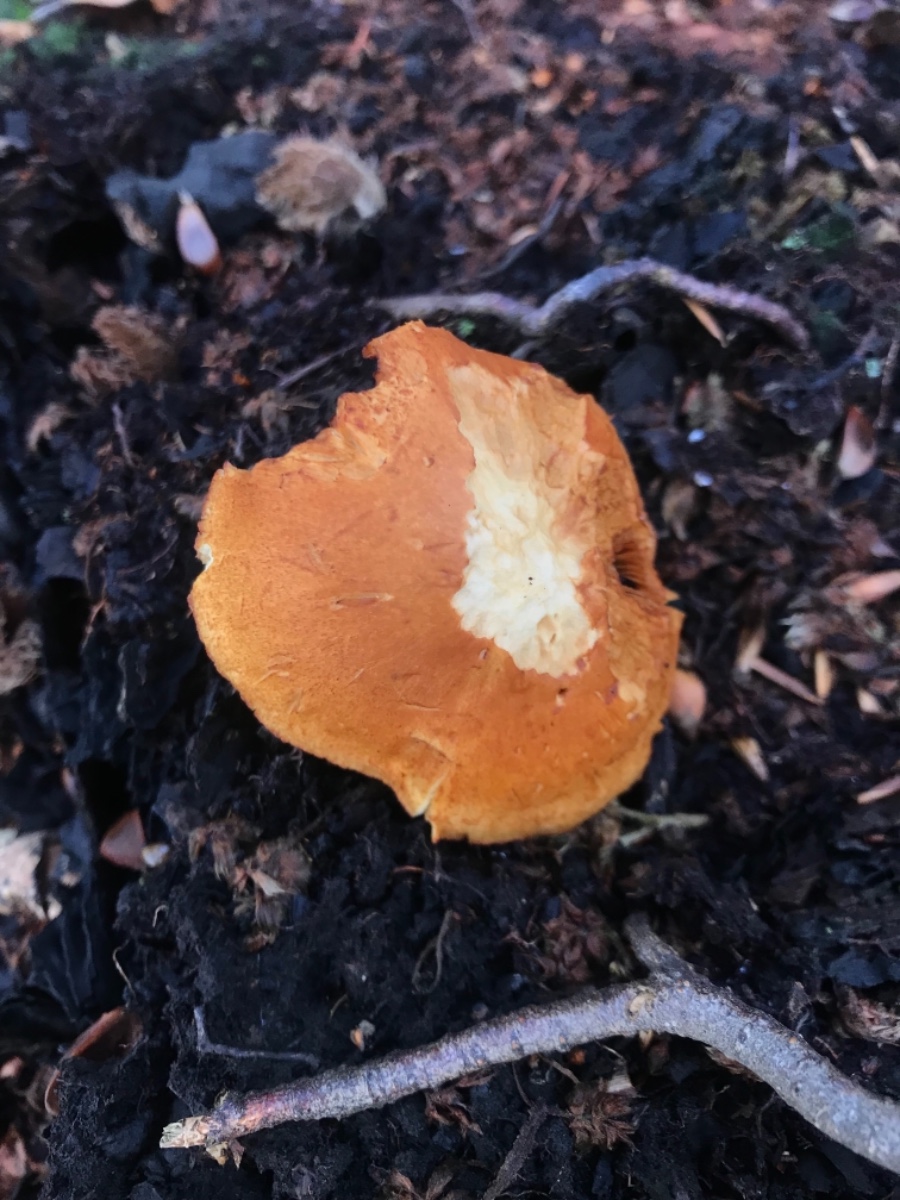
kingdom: Fungi
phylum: Basidiomycota
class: Agaricomycetes
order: Agaricales
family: Hymenogastraceae
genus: Gymnopilus
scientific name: Gymnopilus
